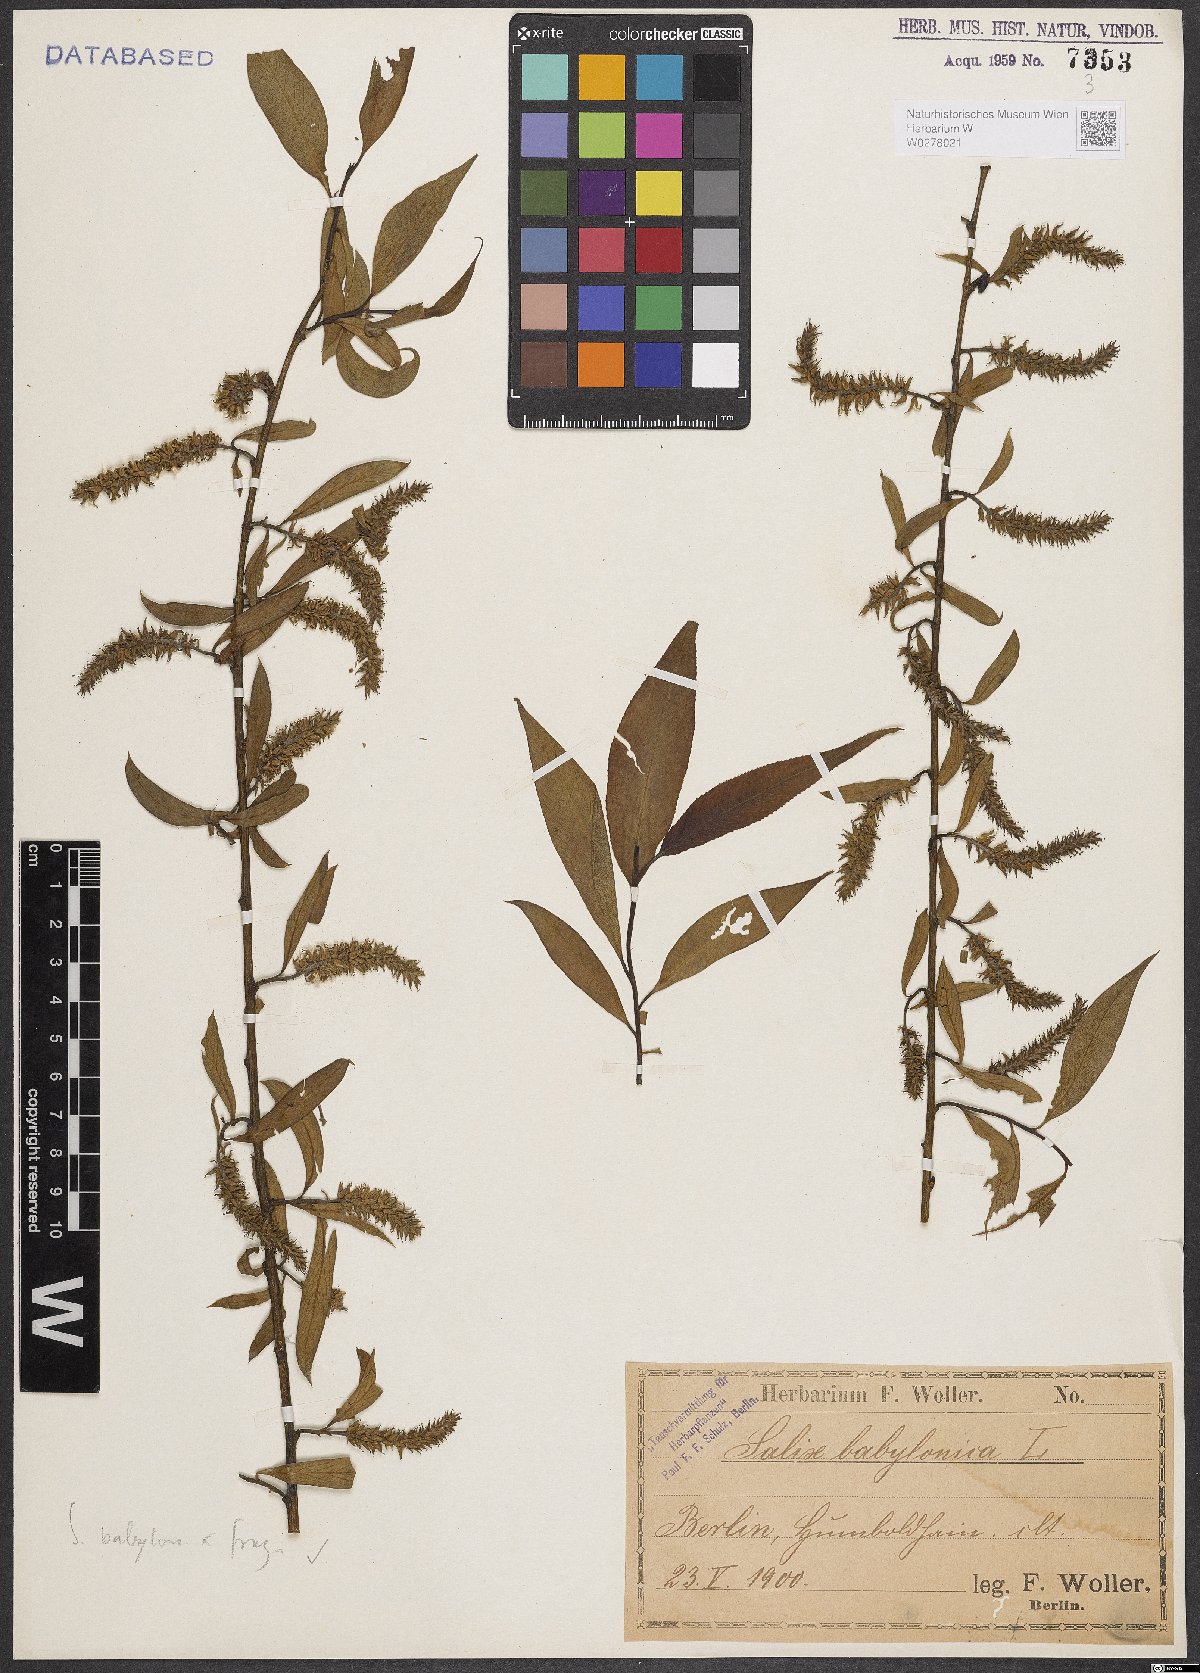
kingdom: Plantae
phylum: Tracheophyta
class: Magnoliopsida
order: Malpighiales
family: Salicaceae
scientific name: Salicaceae
